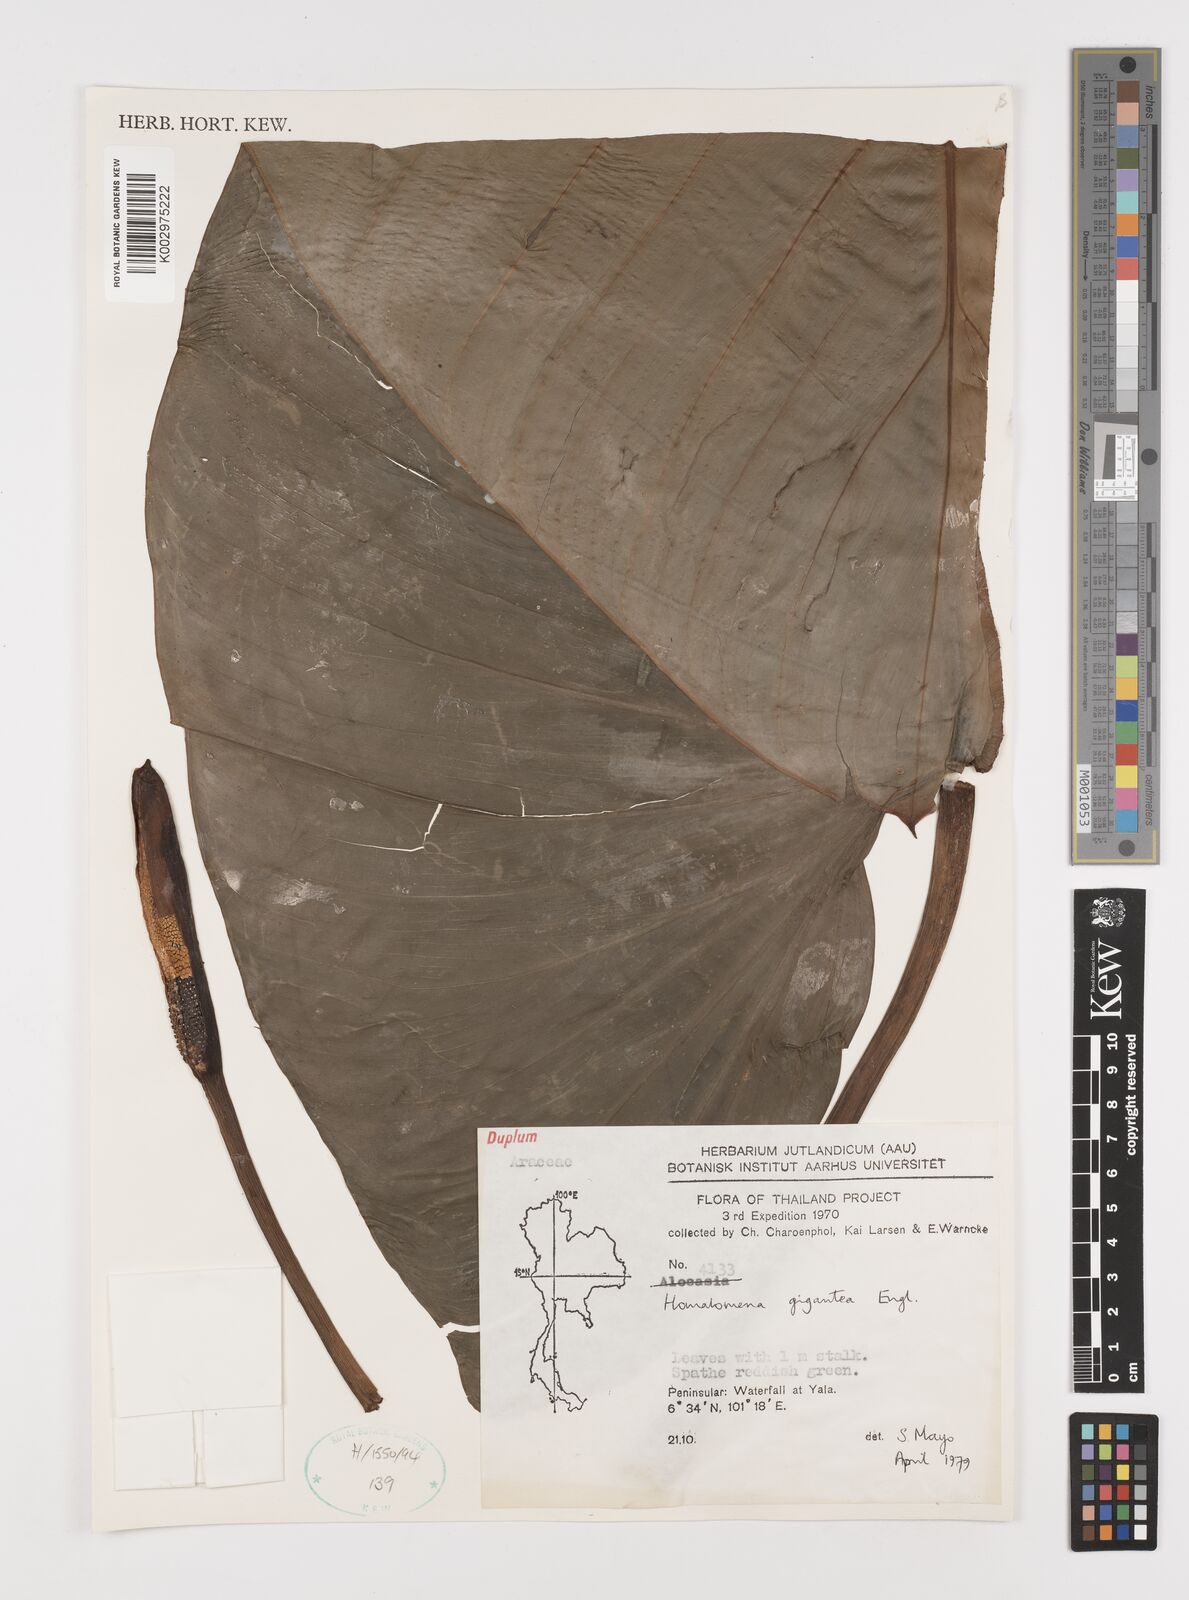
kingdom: Plantae
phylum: Tracheophyta
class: Liliopsida
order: Alismatales
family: Araceae
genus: Homalomena
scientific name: Homalomena pendula
